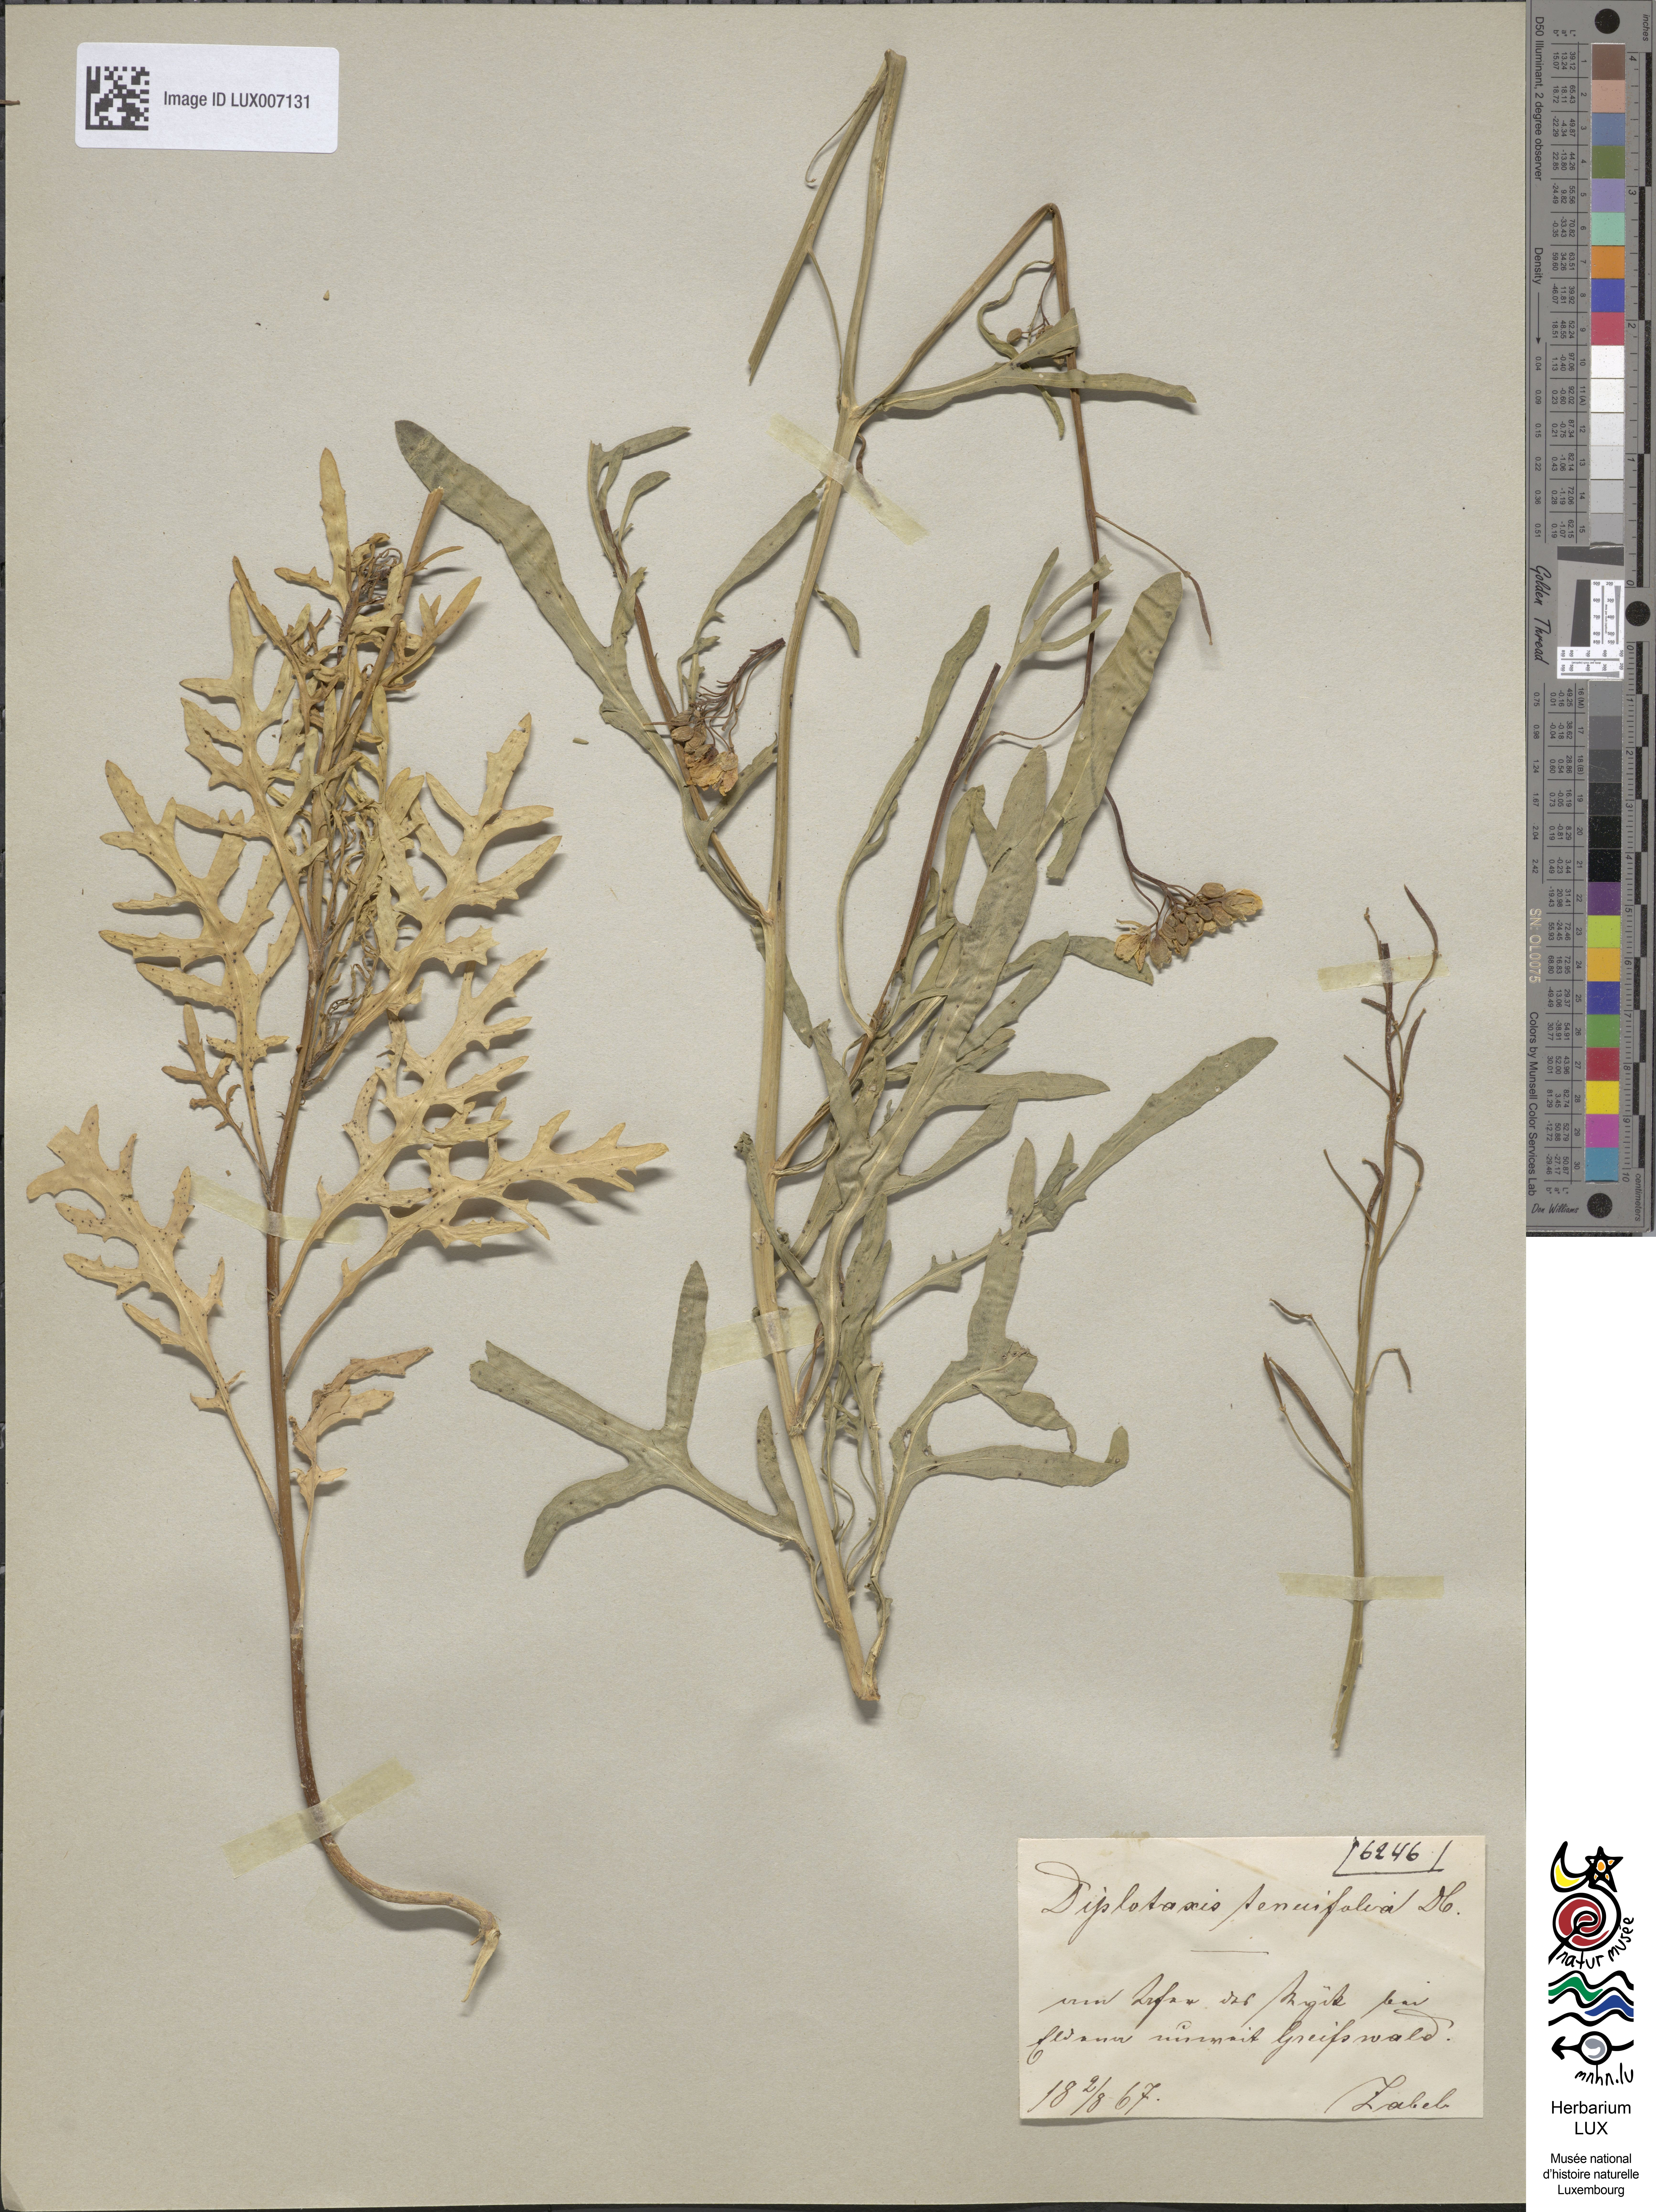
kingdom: Plantae
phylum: Tracheophyta
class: Magnoliopsida
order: Brassicales
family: Brassicaceae
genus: Diplotaxis
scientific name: Diplotaxis tenuifolia
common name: Perennial wall-rocket
